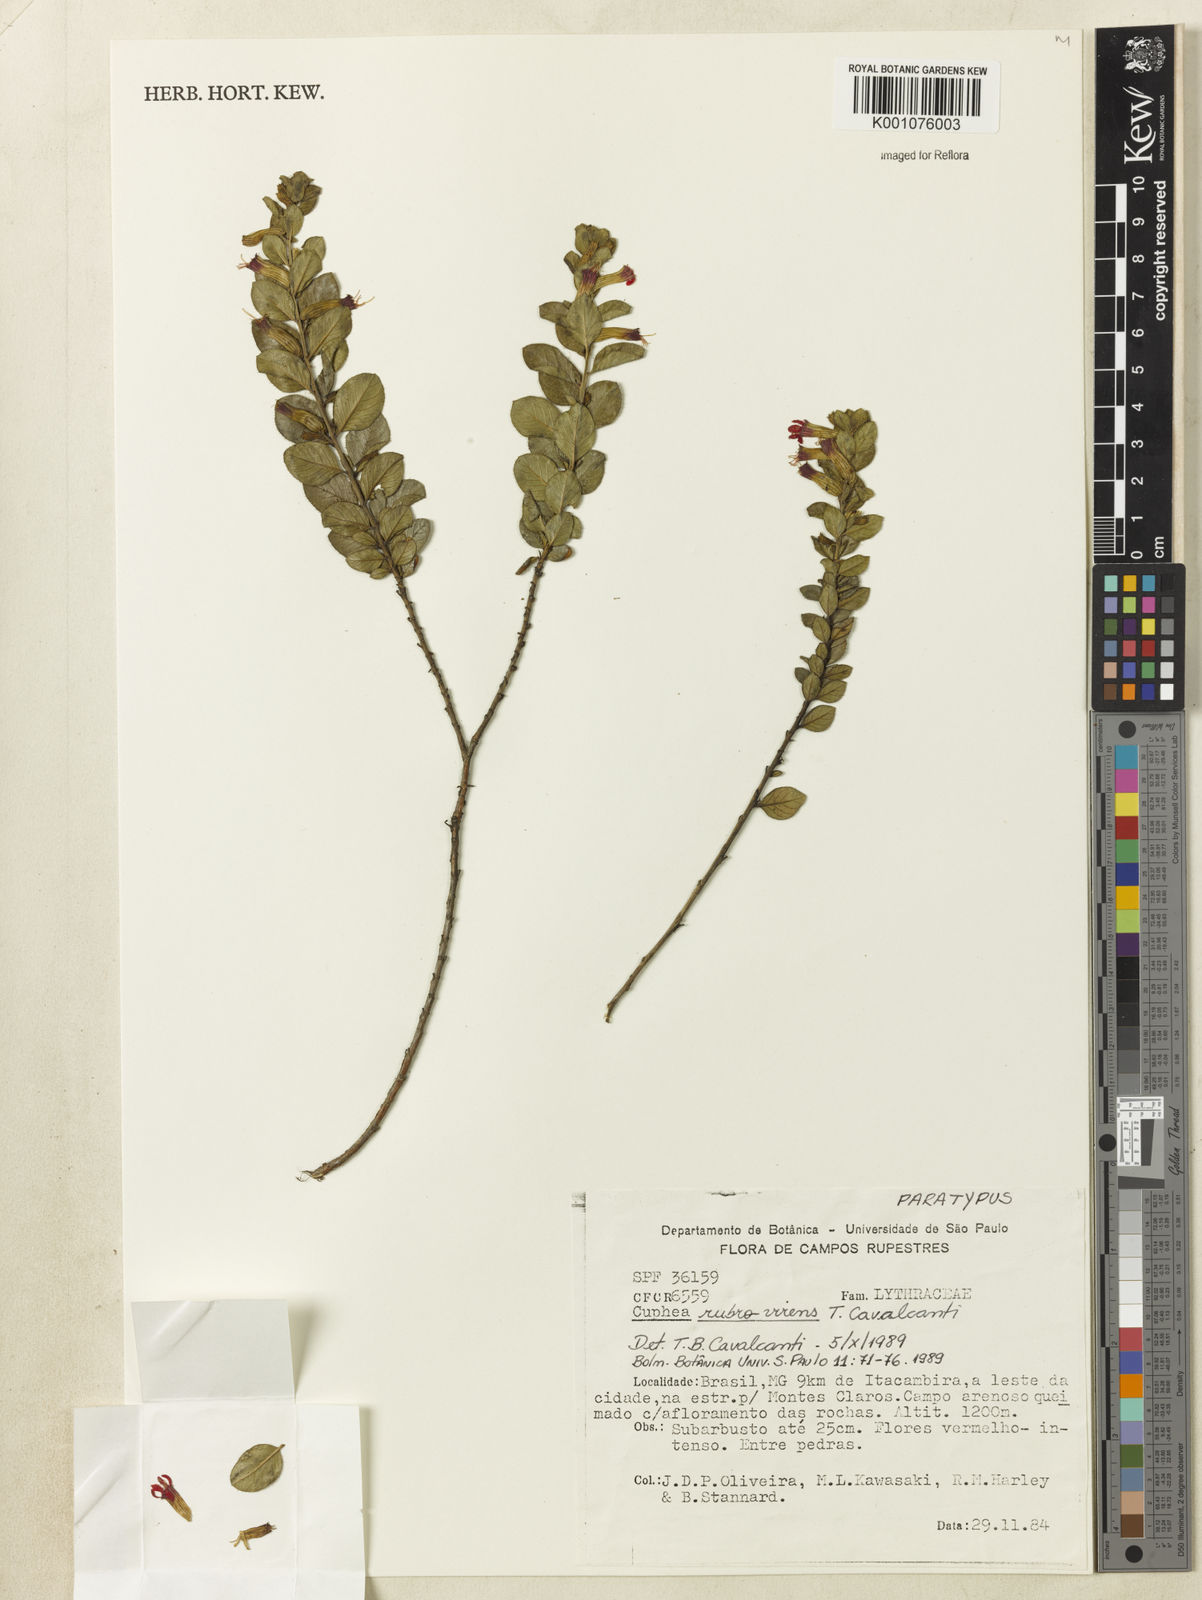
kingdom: Plantae
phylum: Tracheophyta
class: Magnoliopsida
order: Myrtales
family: Lythraceae
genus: Cuphea
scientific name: Cuphea rubrovirens
